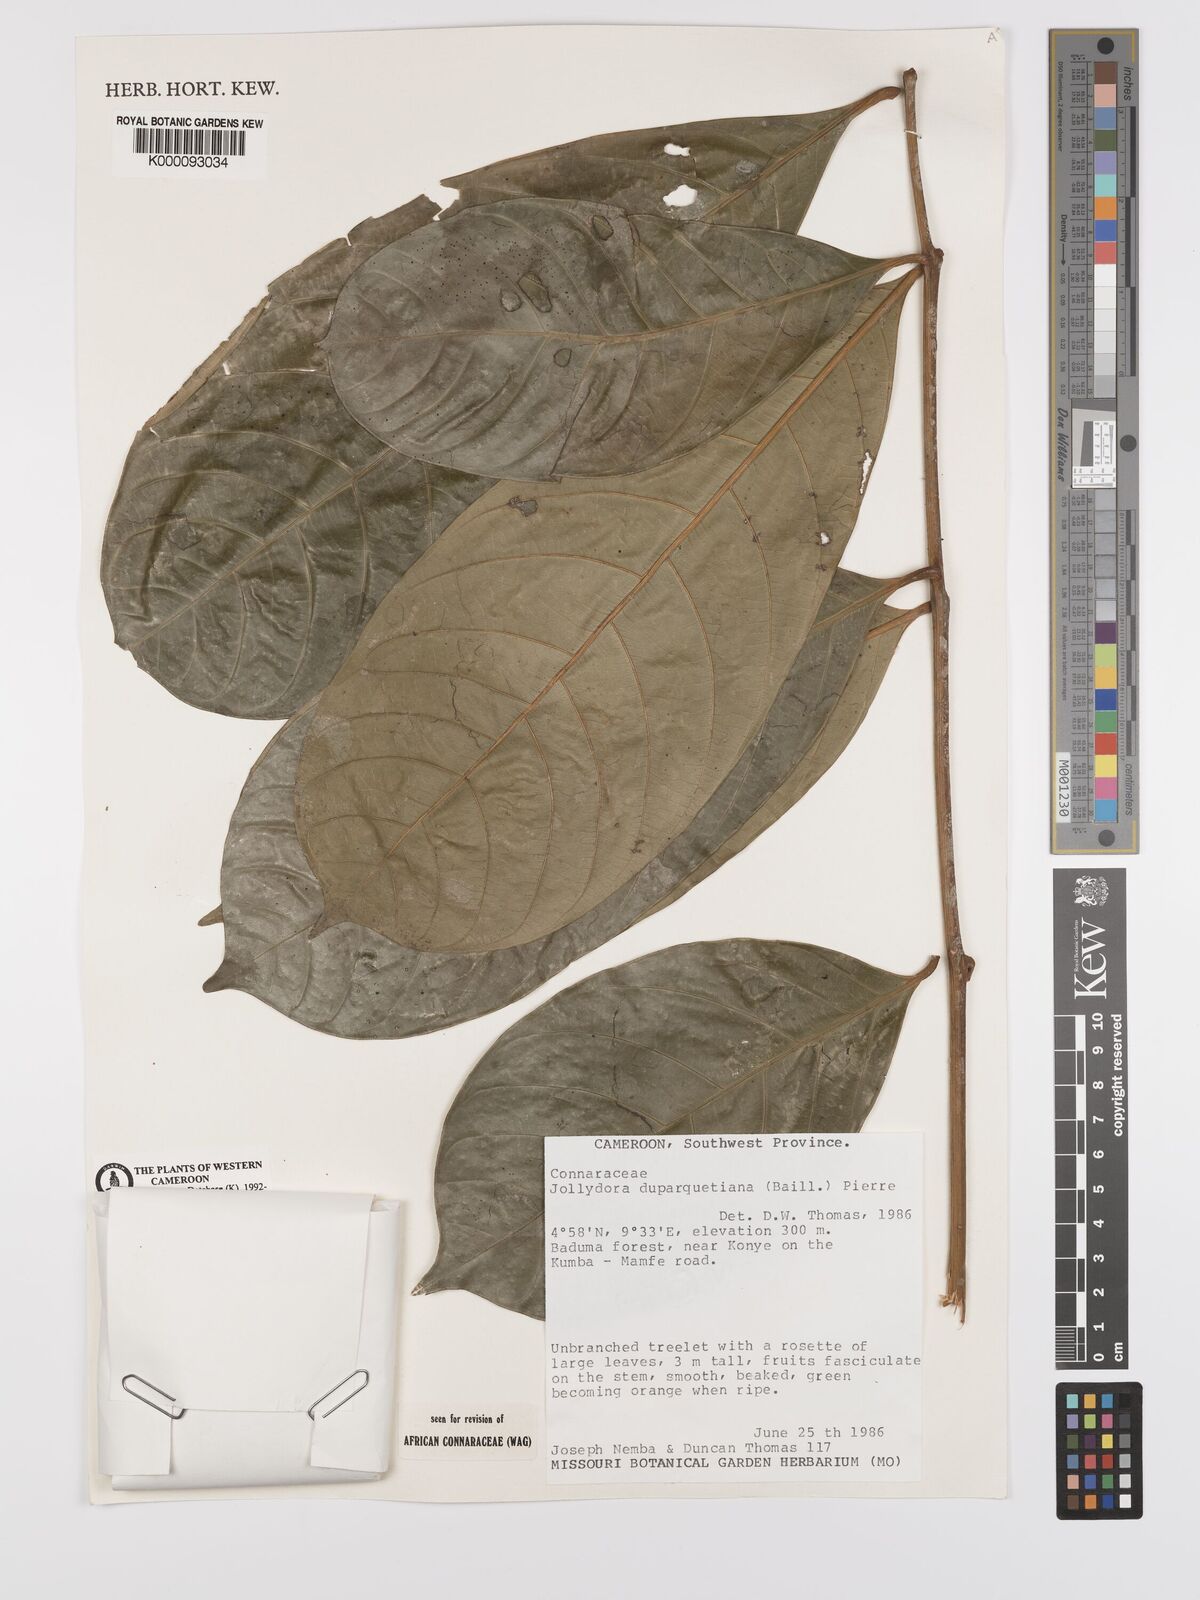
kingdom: Plantae
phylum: Tracheophyta
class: Magnoliopsida
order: Oxalidales
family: Connaraceae
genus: Jollydora
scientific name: Jollydora duparquetiana
